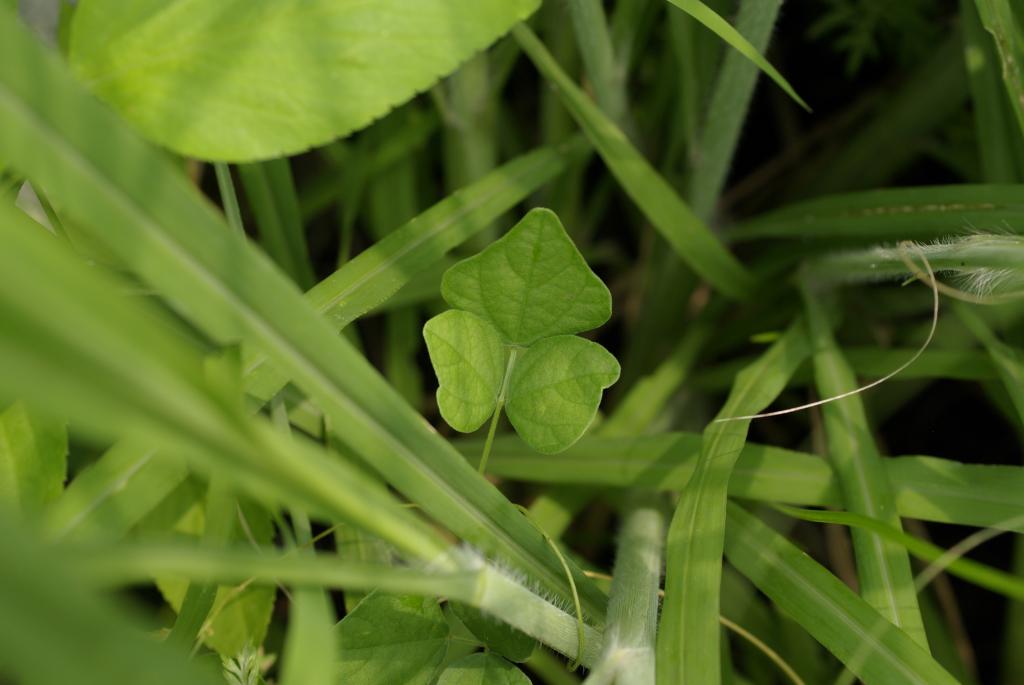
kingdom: Plantae
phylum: Tracheophyta
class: Magnoliopsida
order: Fabales
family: Fabaceae
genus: Dunbaria
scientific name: Dunbaria punctata
